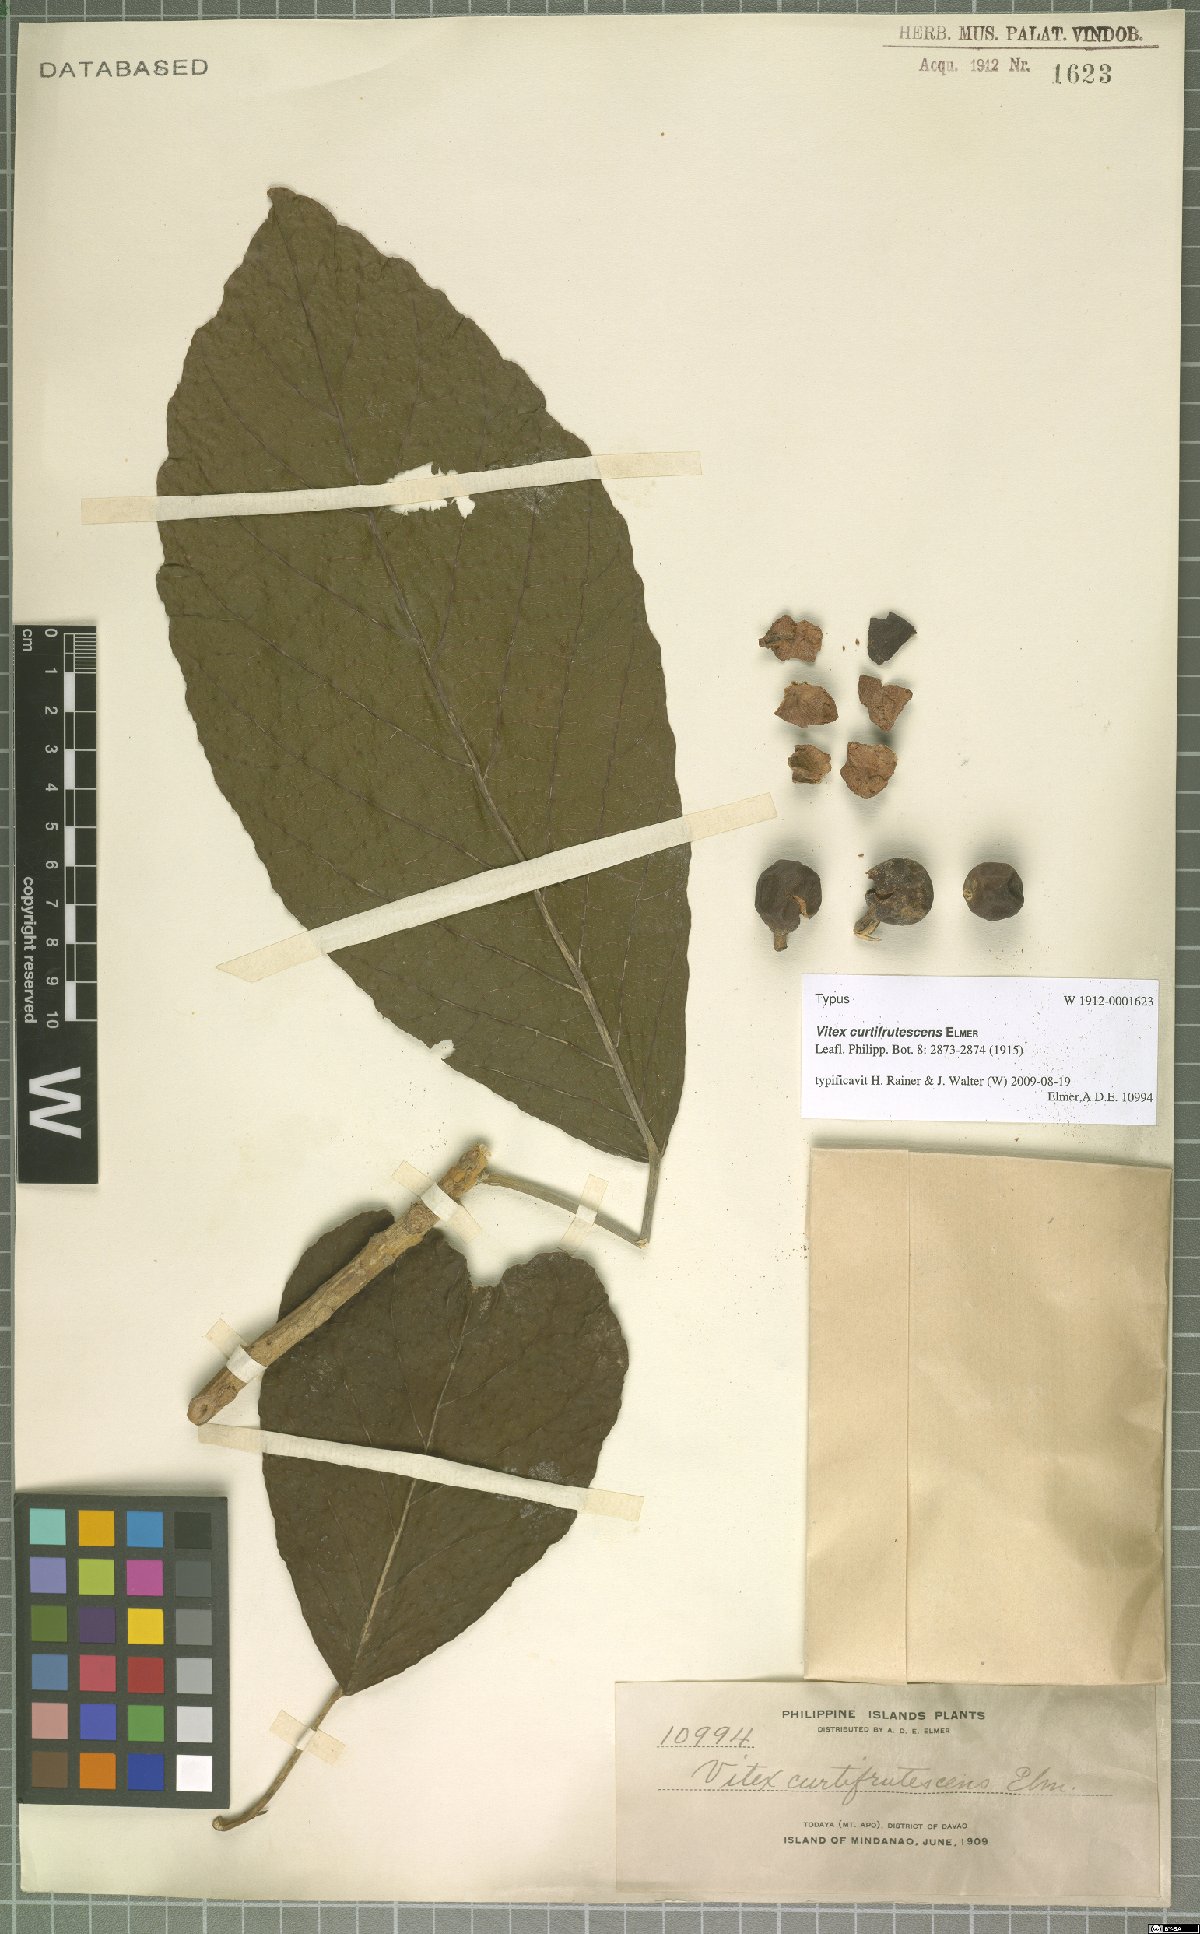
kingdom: Plantae
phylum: Tracheophyta
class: Magnoliopsida
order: Malpighiales
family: Achariaceae
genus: Trichadenia
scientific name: Trichadenia philippinensis
